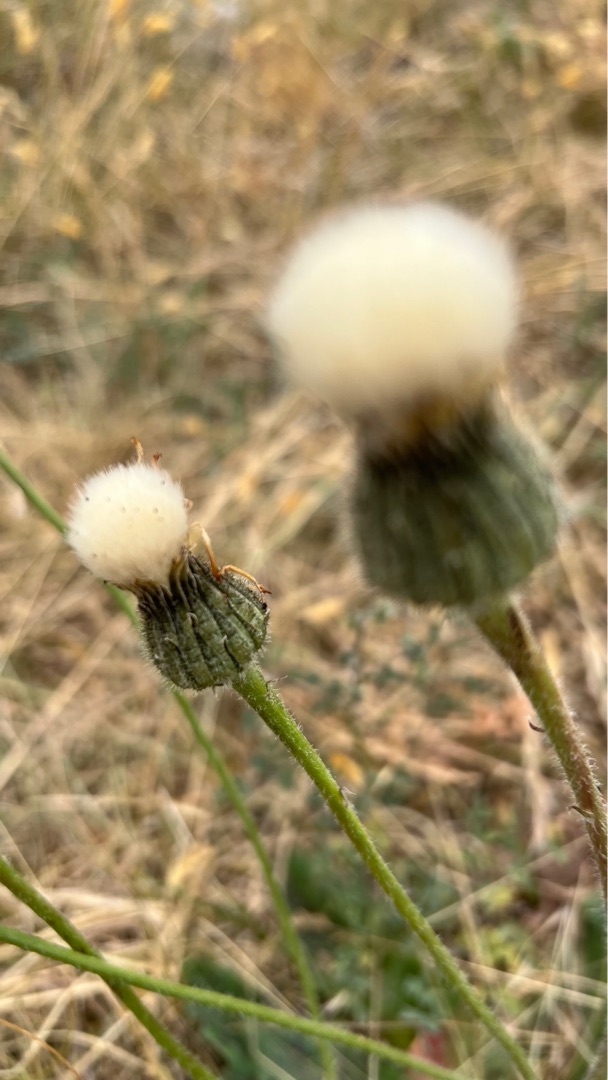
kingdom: Plantae
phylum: Tracheophyta
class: Magnoliopsida
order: Asterales
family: Asteraceae
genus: Trommsdorffia
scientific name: Trommsdorffia maculata
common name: Plettet kongepen
